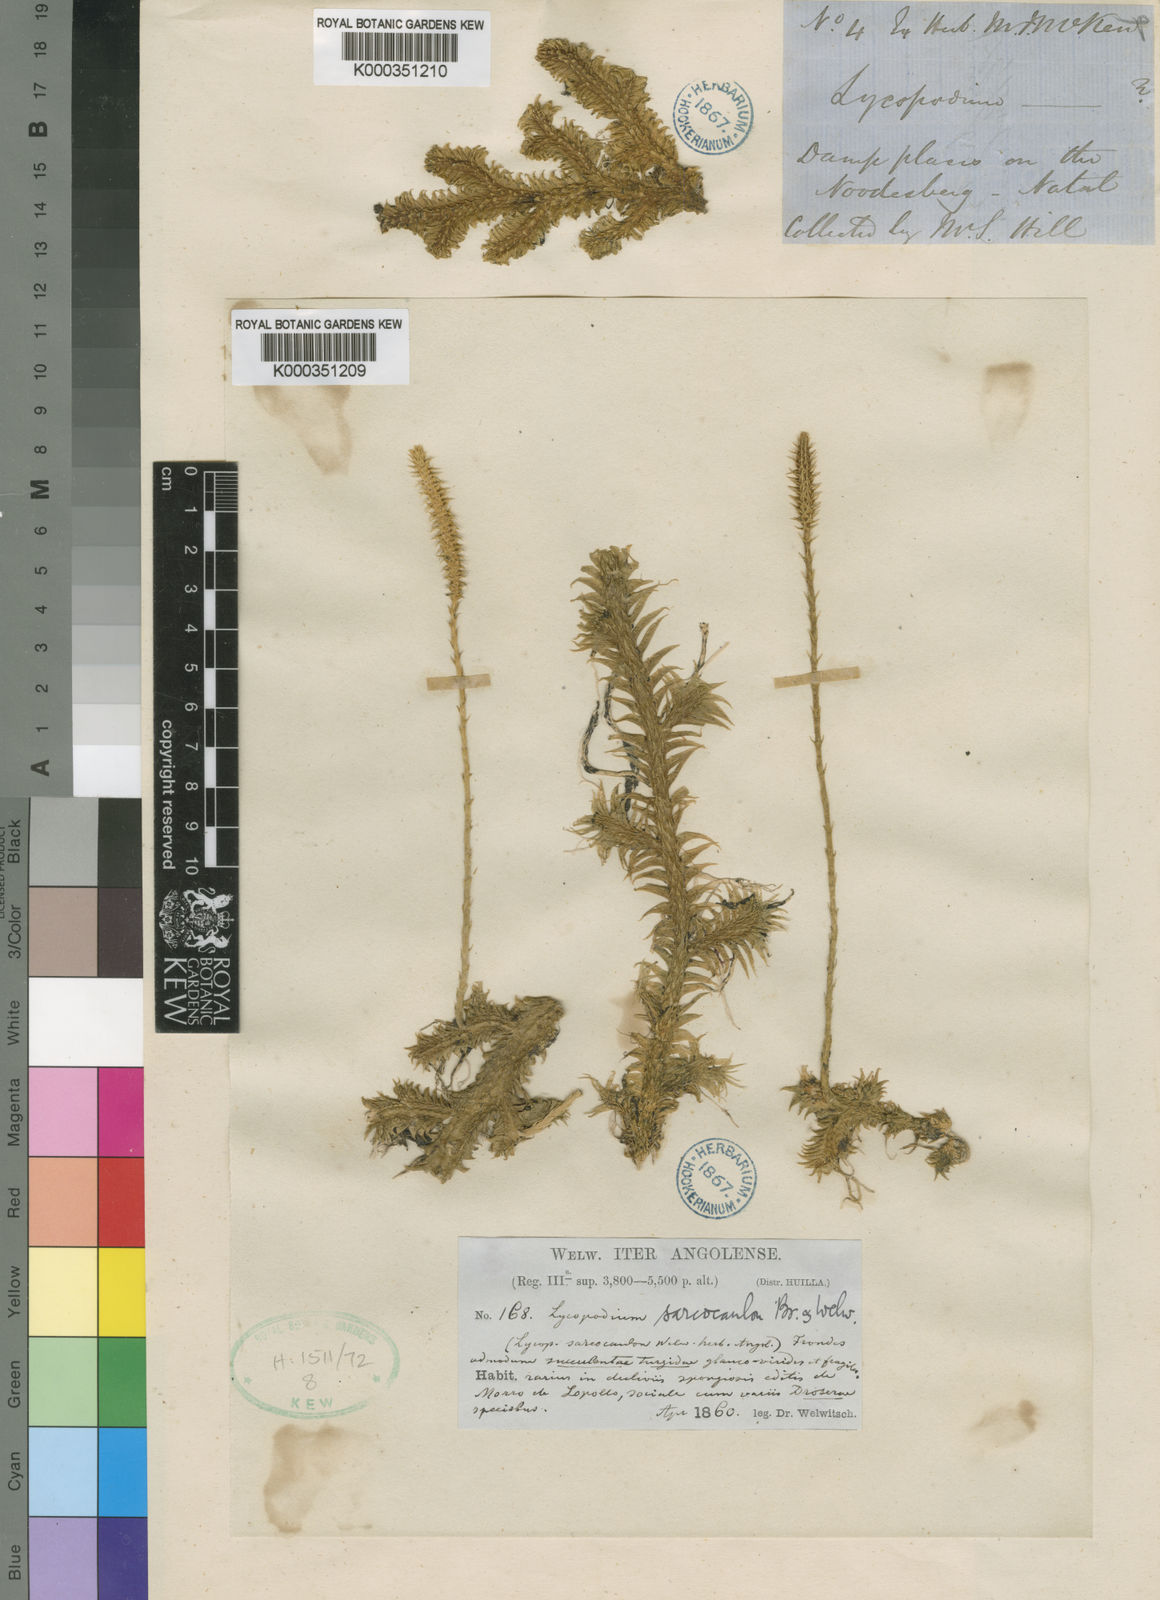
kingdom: Plantae
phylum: Tracheophyta
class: Lycopodiopsida
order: Lycopodiales
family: Lycopodiaceae
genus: Pseudolycopodiella
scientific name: Pseudolycopodiella sarcocaulos
